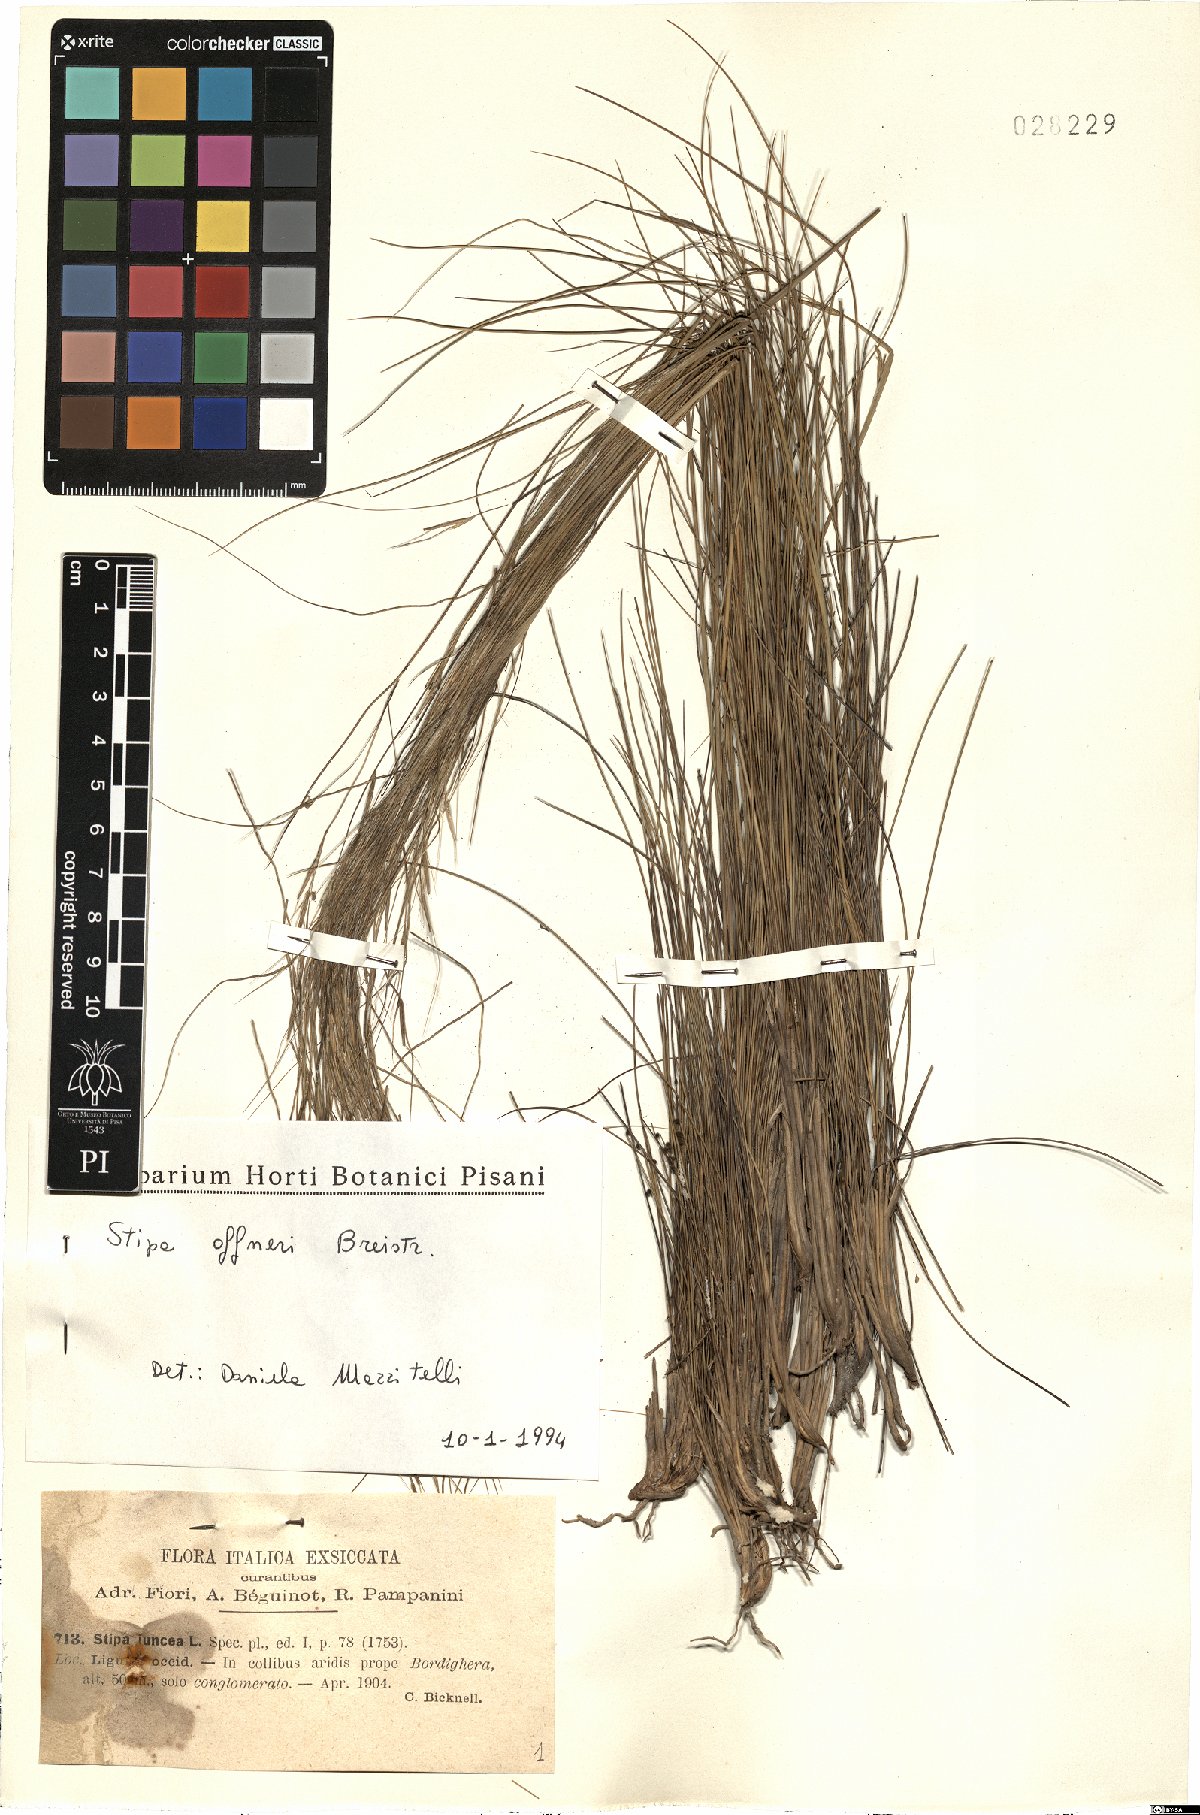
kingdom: Plantae
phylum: Tracheophyta
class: Liliopsida
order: Poales
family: Poaceae
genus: Stipa
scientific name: Stipa offneri
